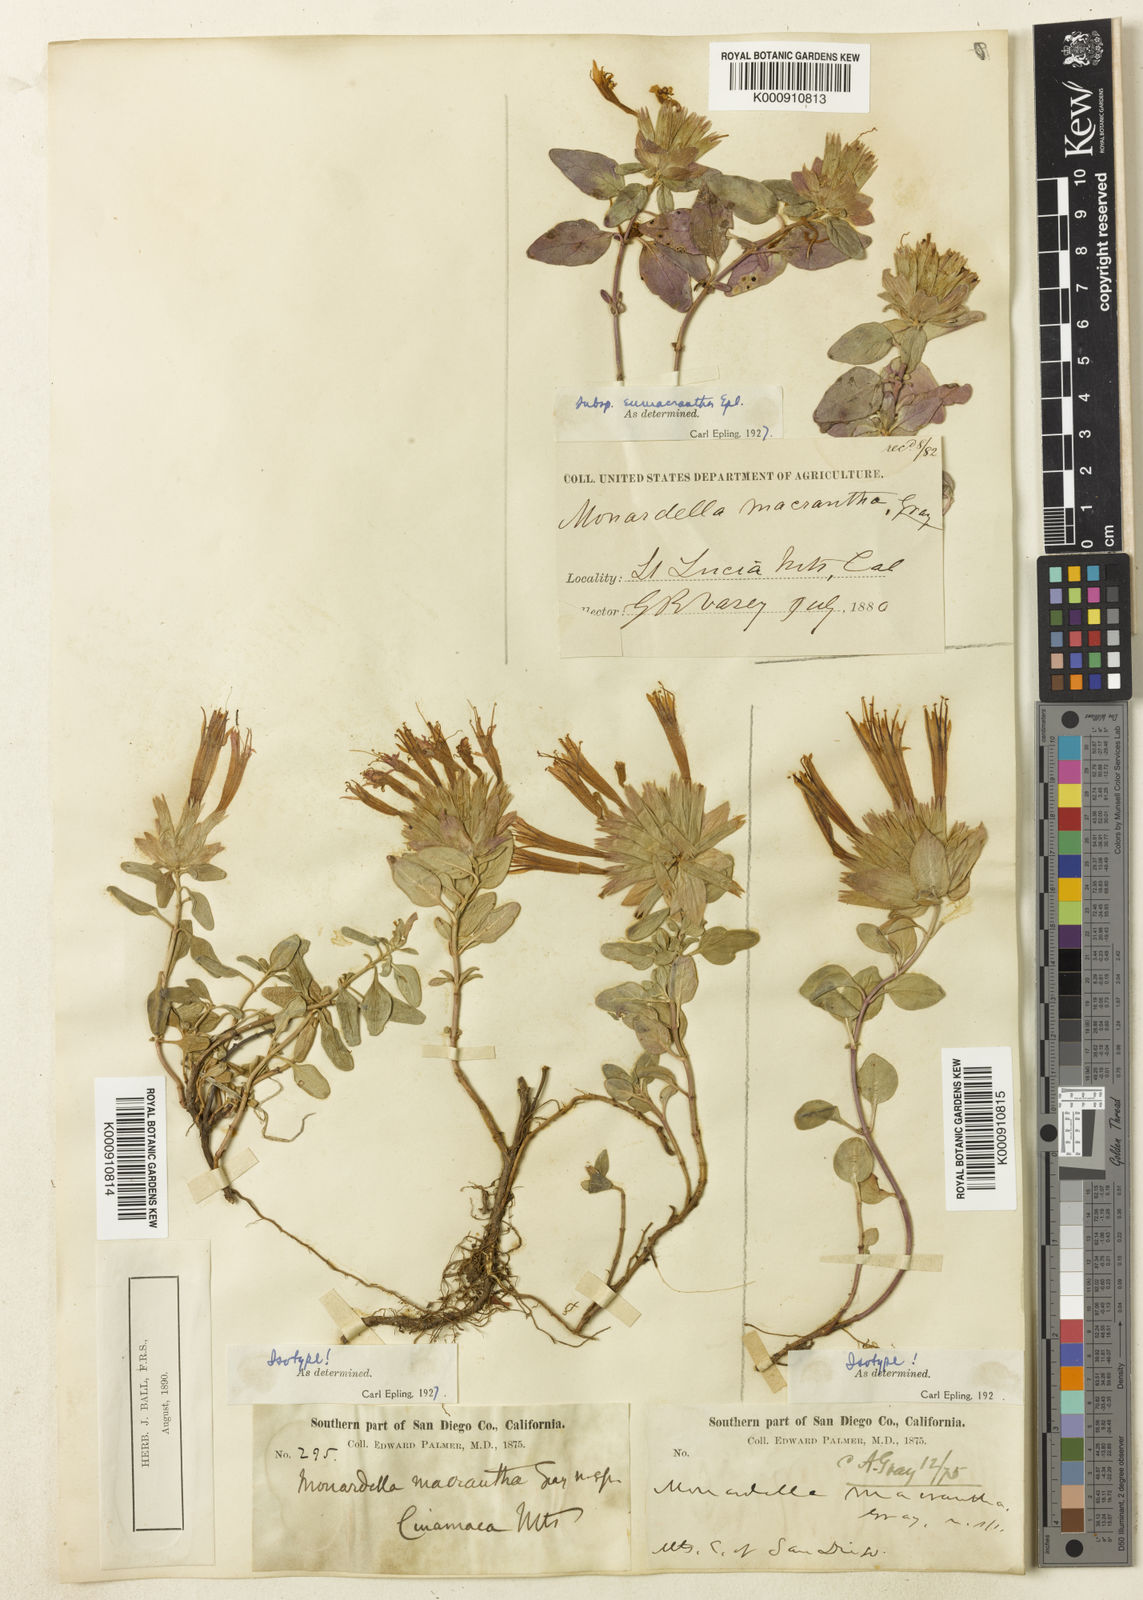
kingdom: Plantae
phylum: Tracheophyta
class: Magnoliopsida
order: Lamiales
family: Lamiaceae
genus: Monardella
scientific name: Monardella macrantha
